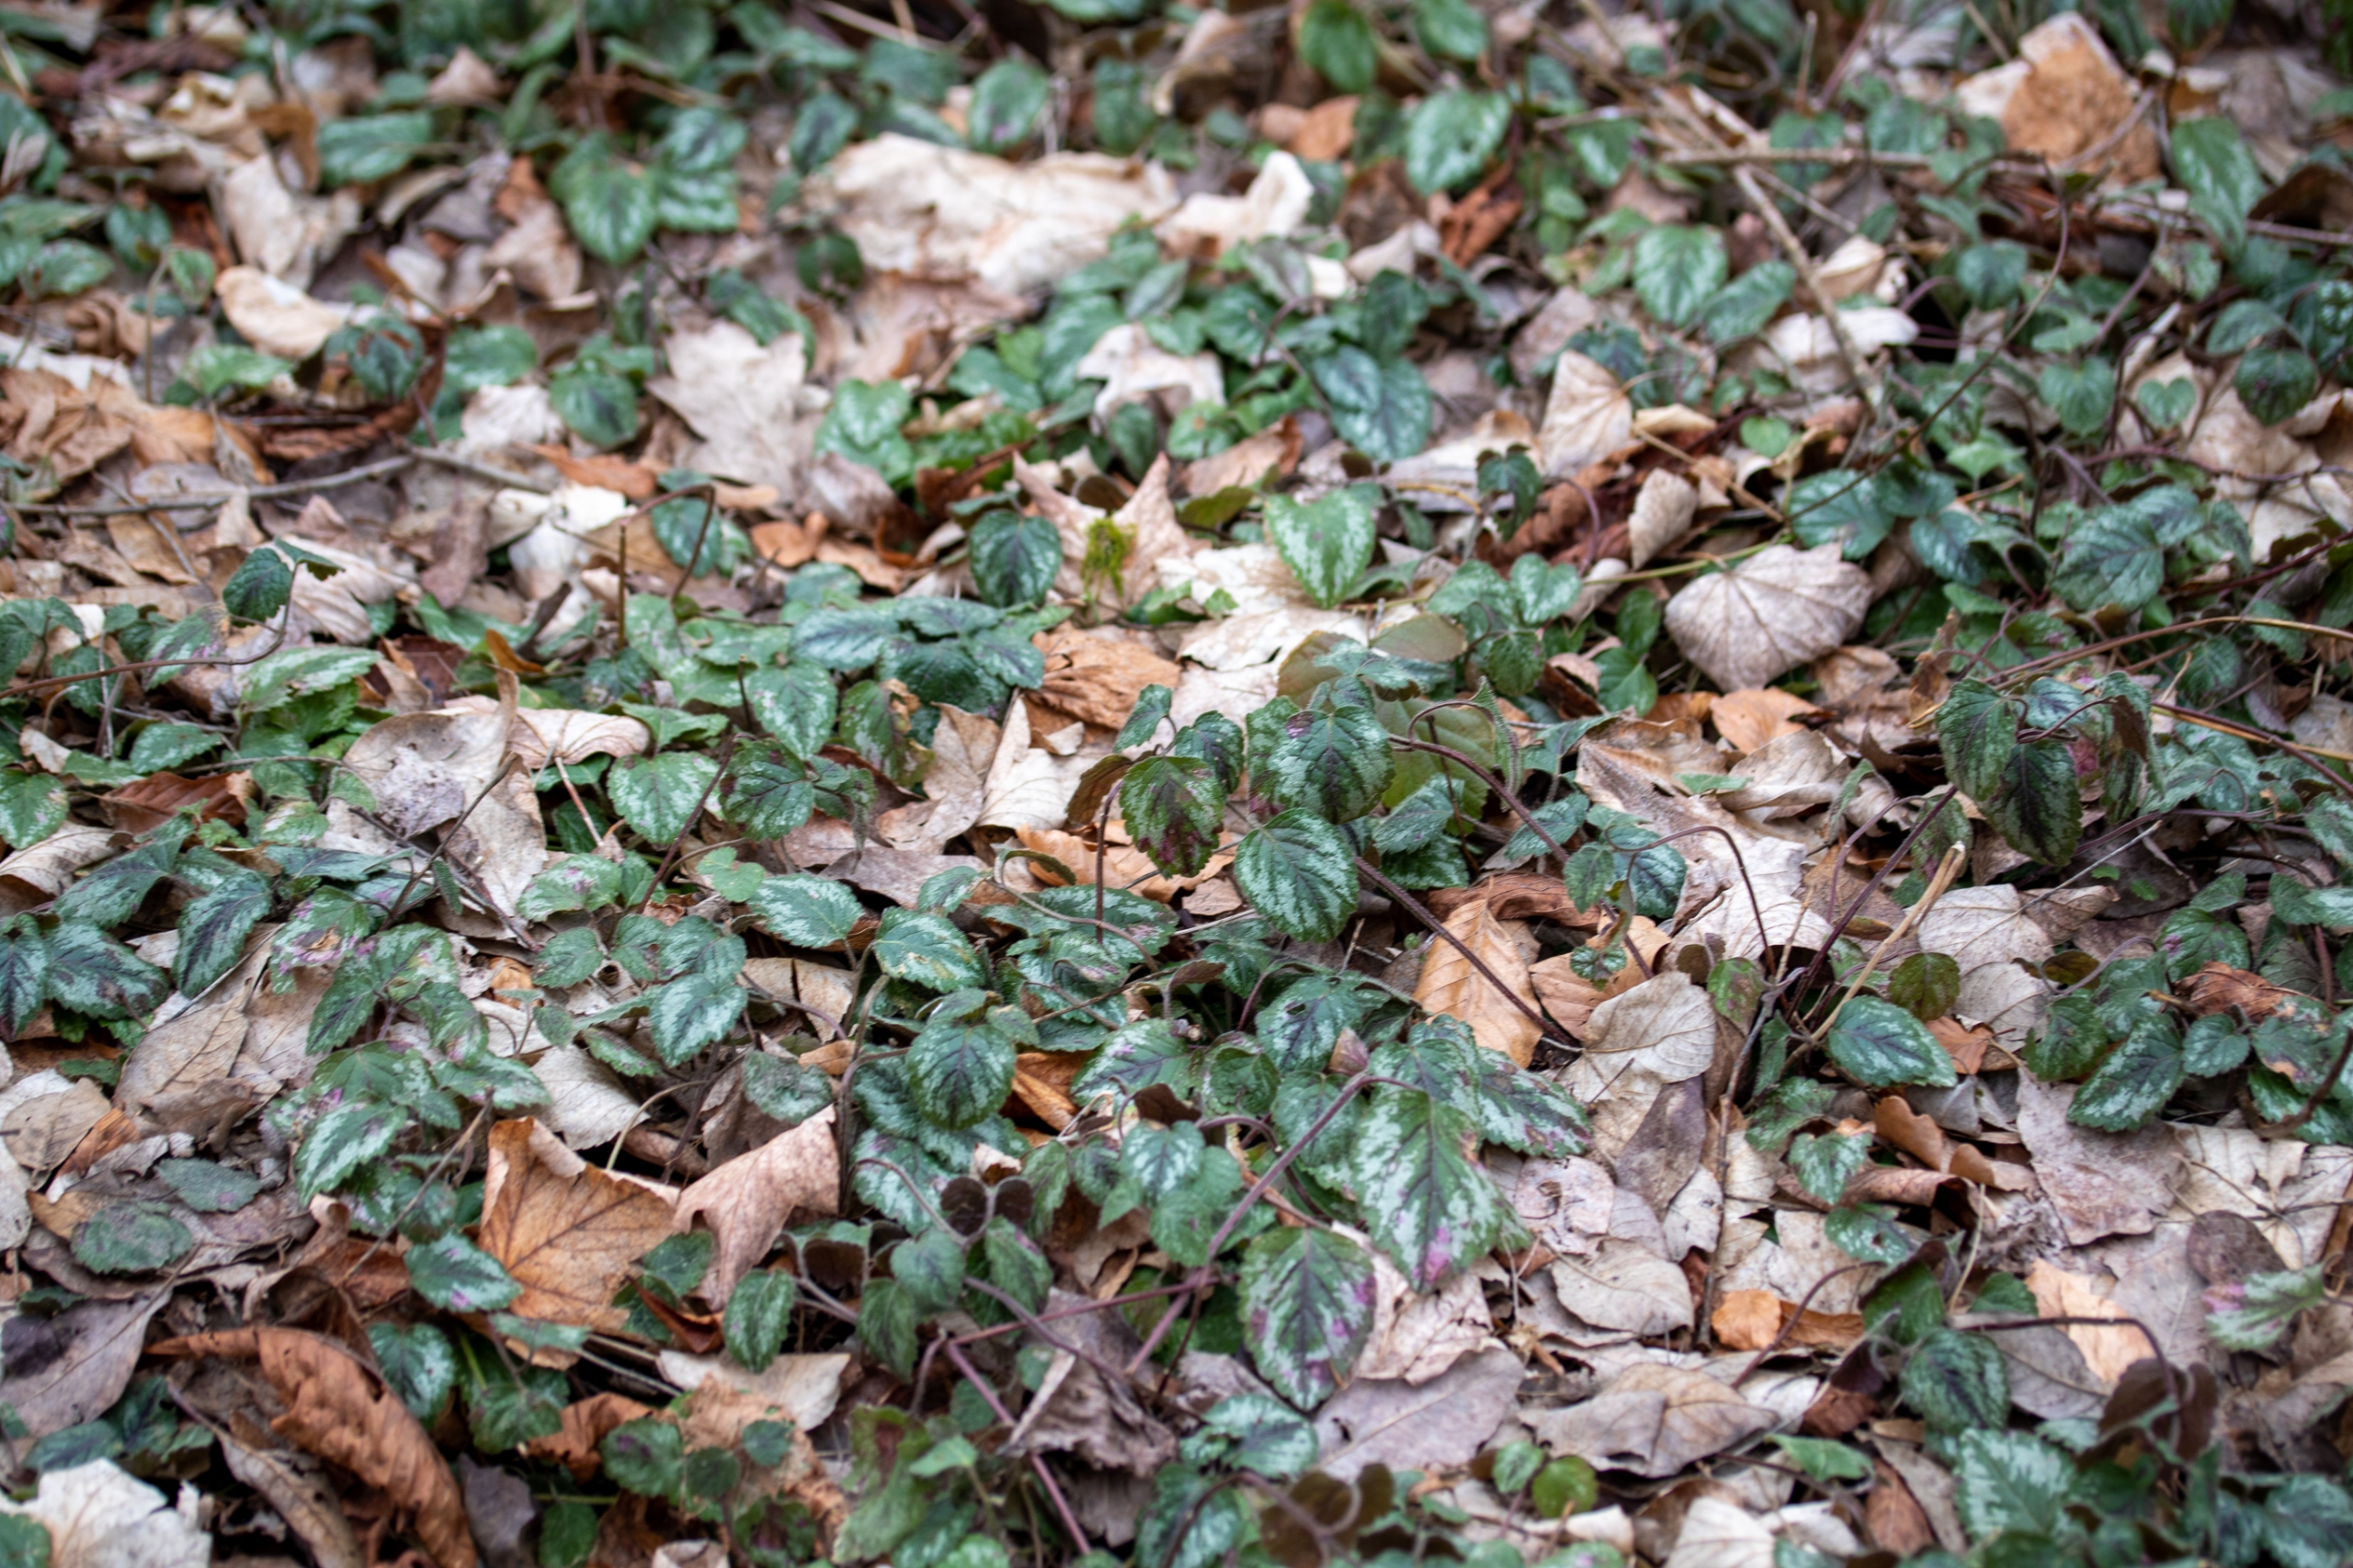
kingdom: Plantae
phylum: Tracheophyta
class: Magnoliopsida
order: Lamiales
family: Lamiaceae
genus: Lamium
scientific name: Lamium galeobdolon
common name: Have-guldnælde
